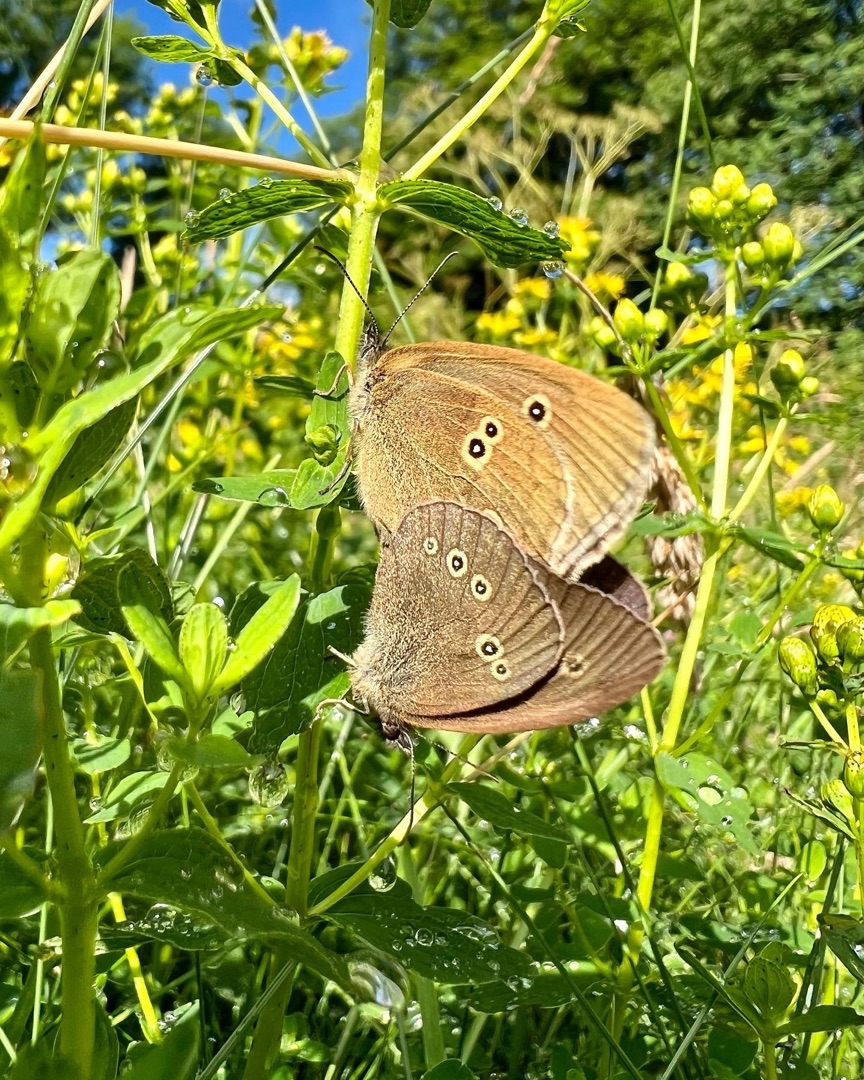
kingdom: Animalia
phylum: Arthropoda
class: Insecta
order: Lepidoptera
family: Nymphalidae
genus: Aphantopus
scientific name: Aphantopus hyperantus
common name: Engrandøje
